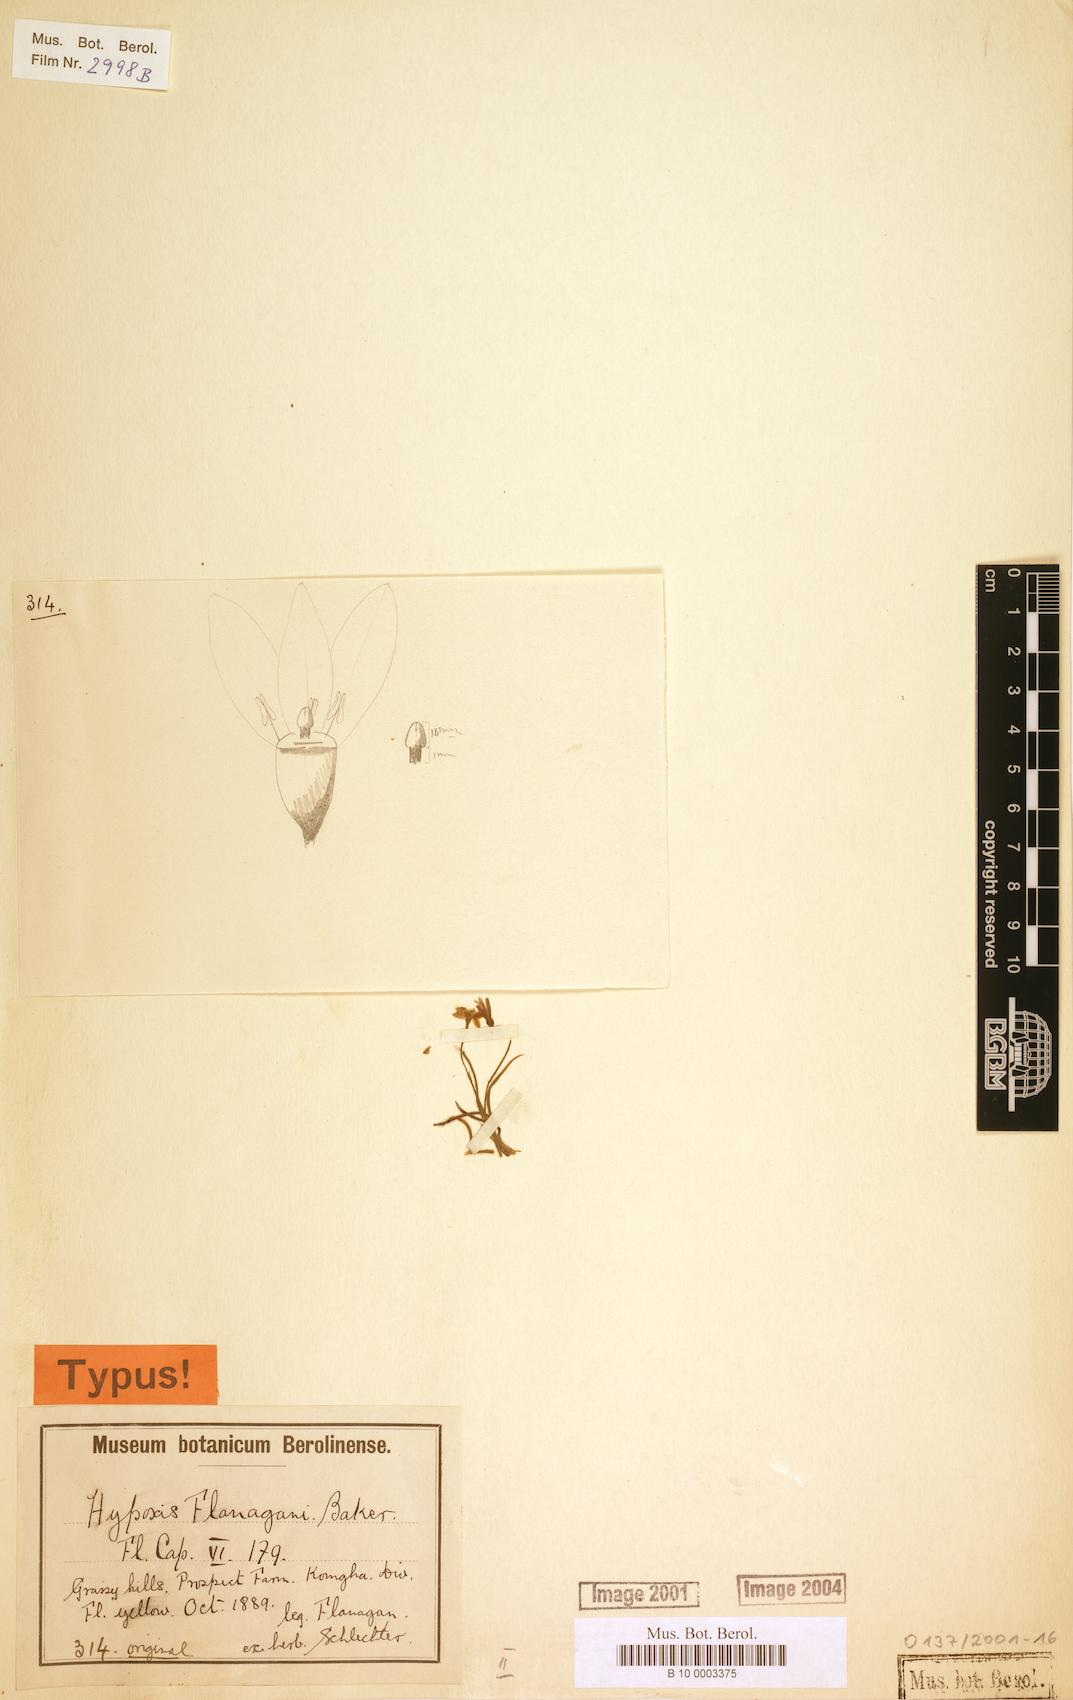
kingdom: Plantae
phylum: Tracheophyta
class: Liliopsida
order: Asparagales
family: Hypoxidaceae
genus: Hypoxis
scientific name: Hypoxis flanaganii
